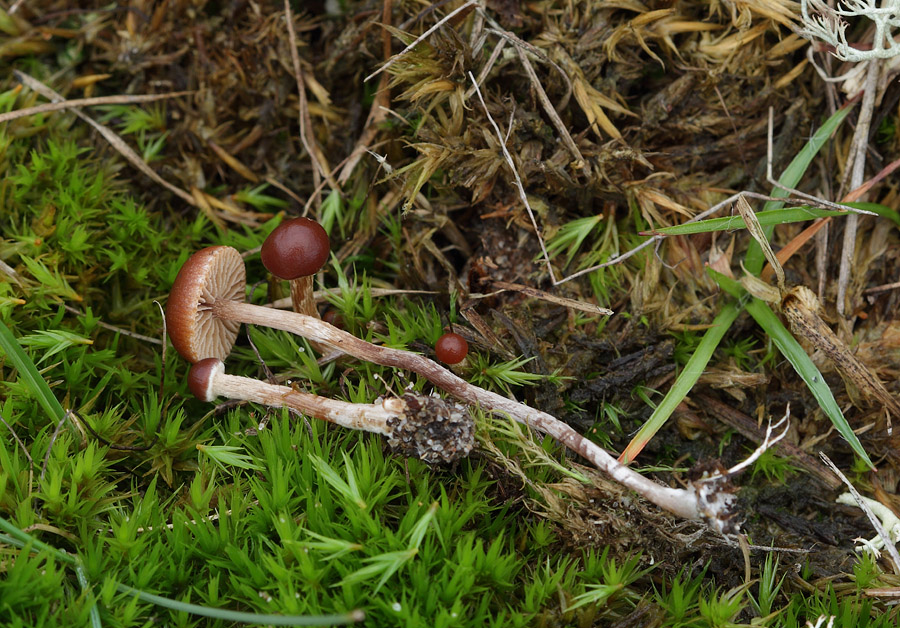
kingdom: Fungi
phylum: Basidiomycota
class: Agaricomycetes
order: Agaricales
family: Strophariaceae
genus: Deconica
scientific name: Deconica montana
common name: rødbrun stråhat
